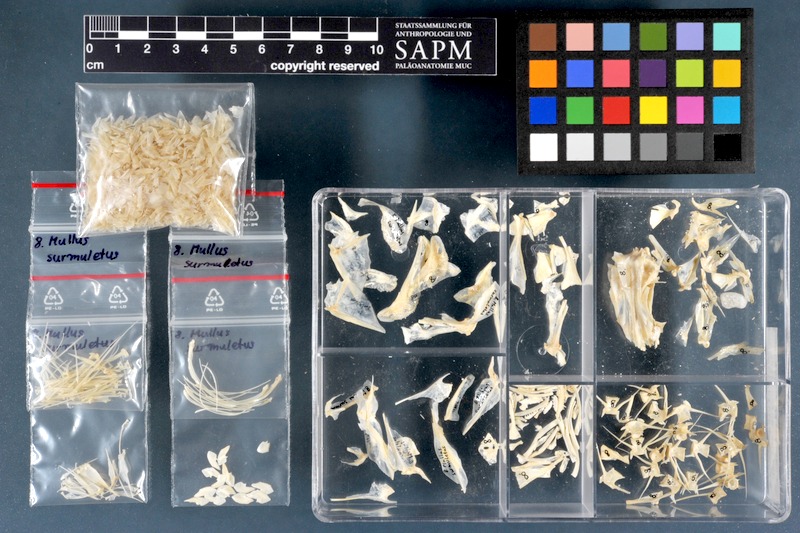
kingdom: Animalia
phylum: Chordata
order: Perciformes
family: Mullidae
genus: Mullus
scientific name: Mullus surmuletus
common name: Red mullet
